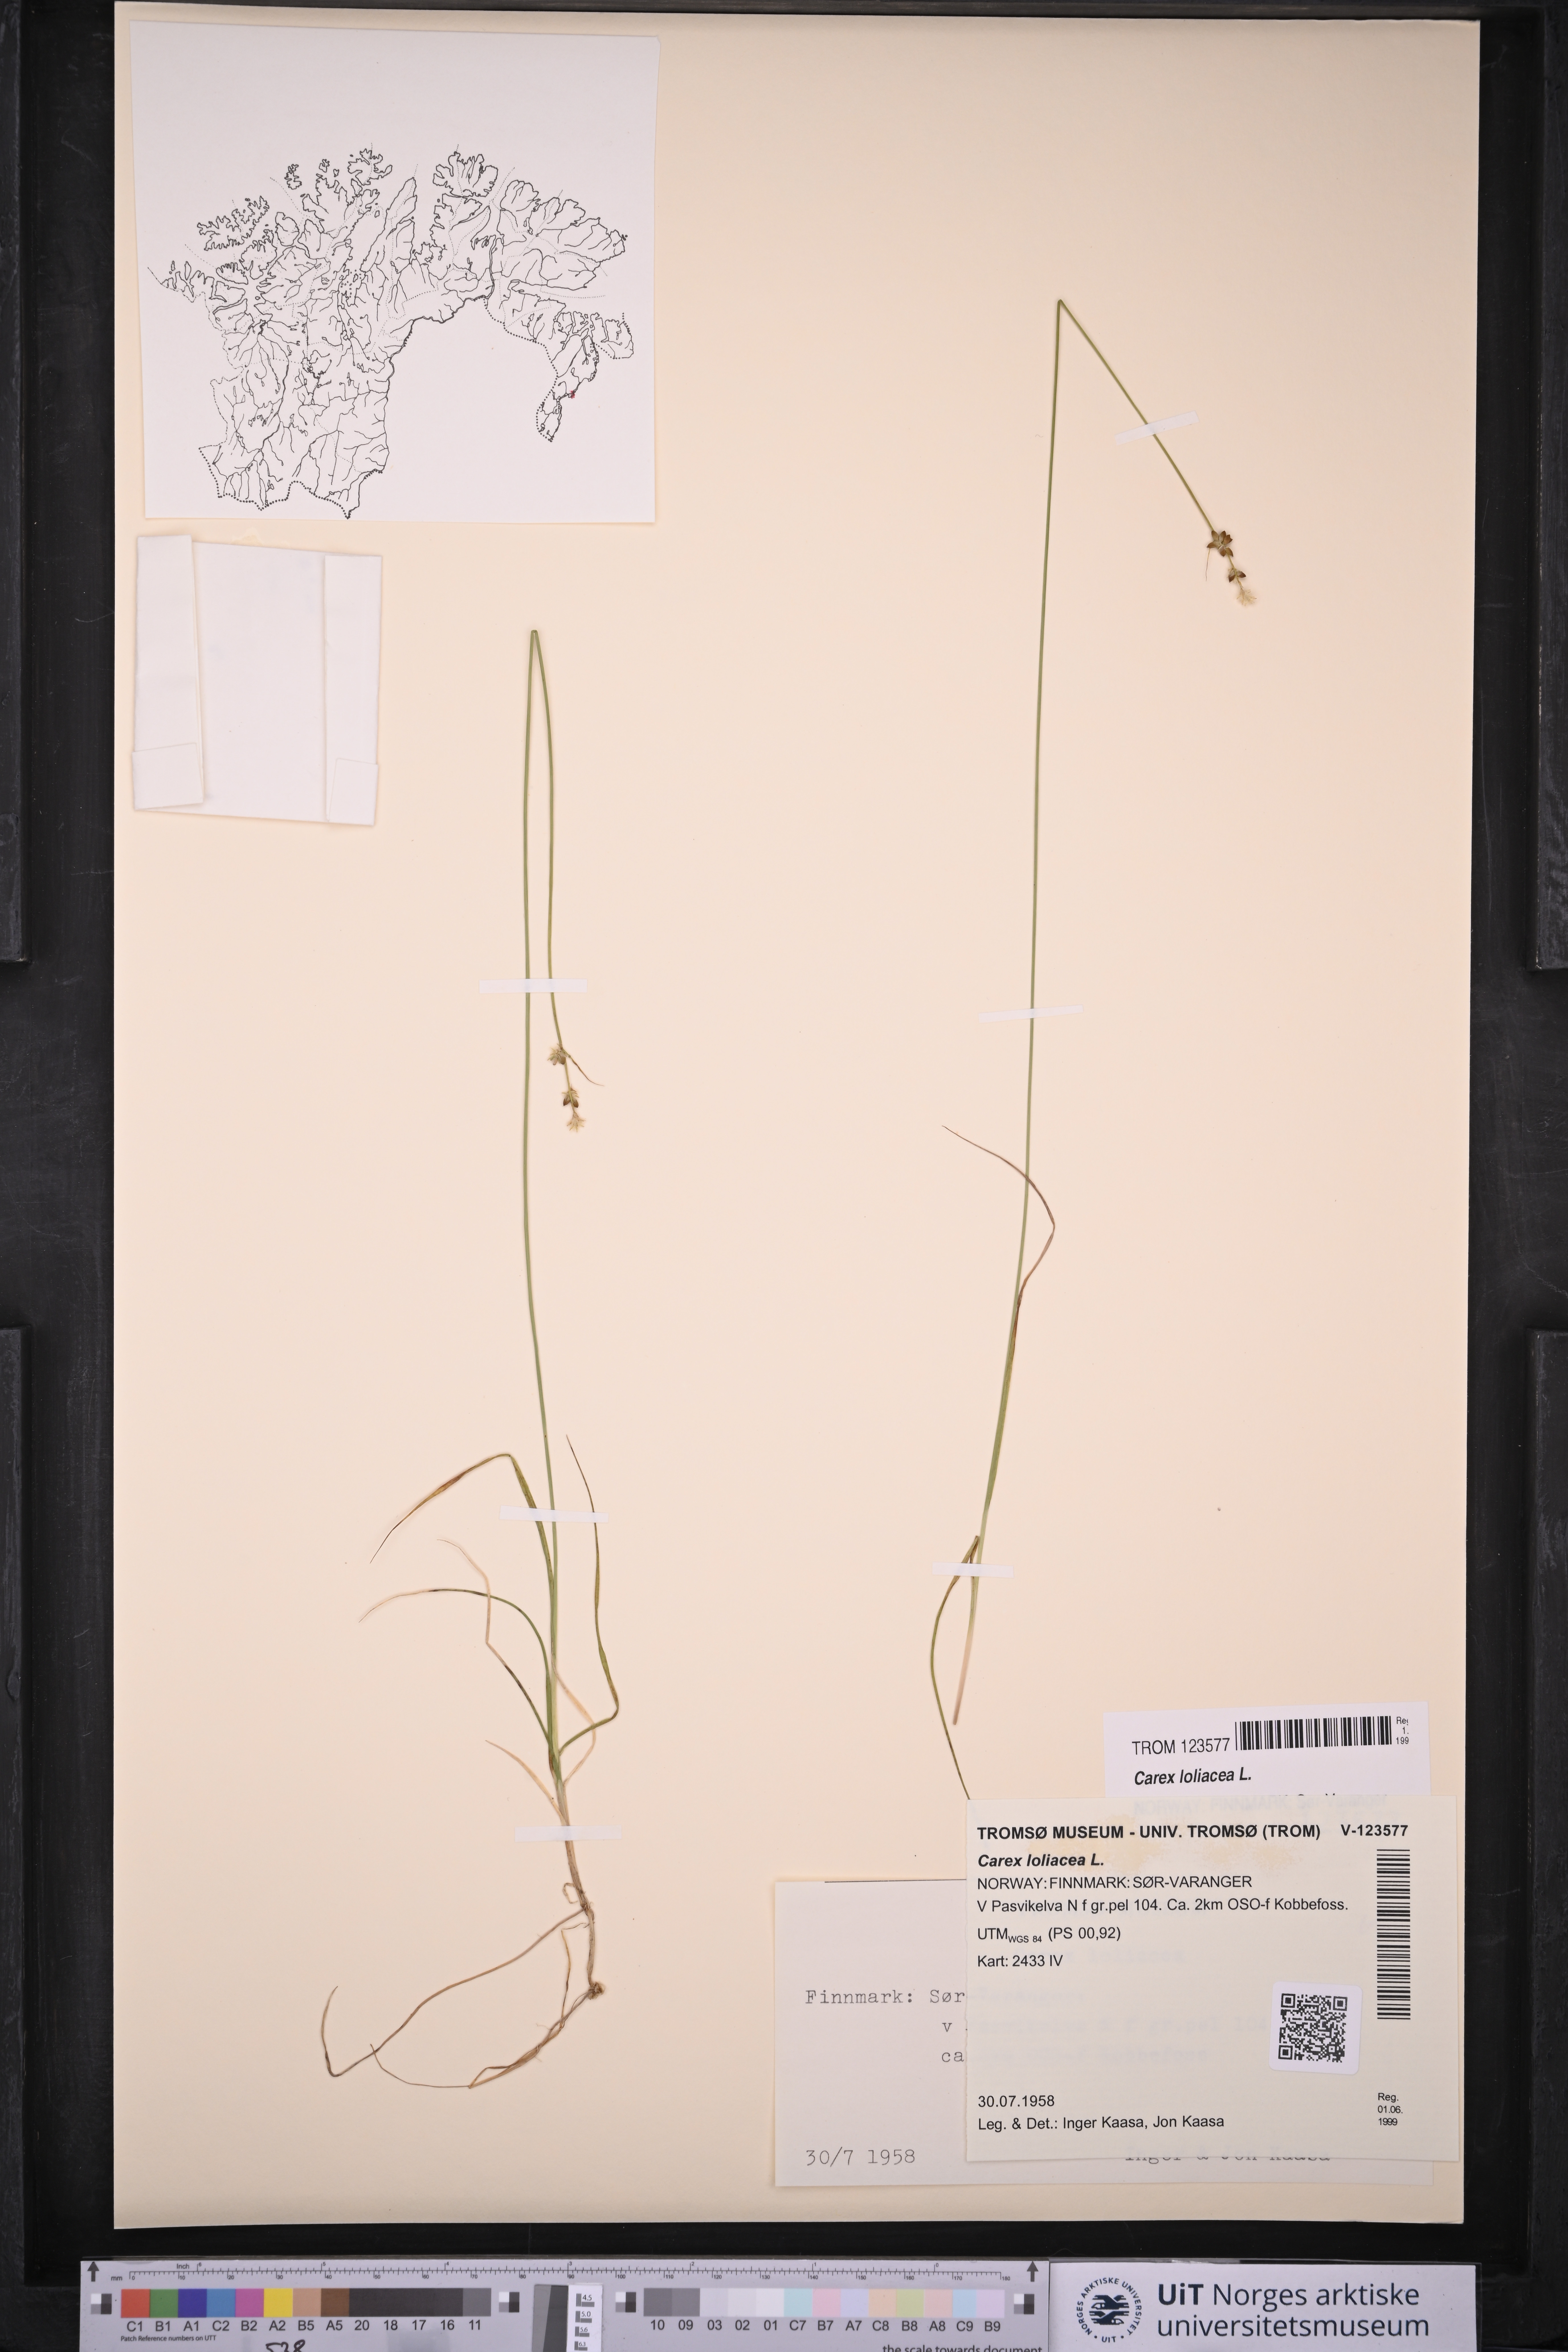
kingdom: Plantae
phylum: Tracheophyta
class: Liliopsida
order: Poales
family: Cyperaceae
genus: Carex
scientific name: Carex loliacea
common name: Ryegrass sedge
